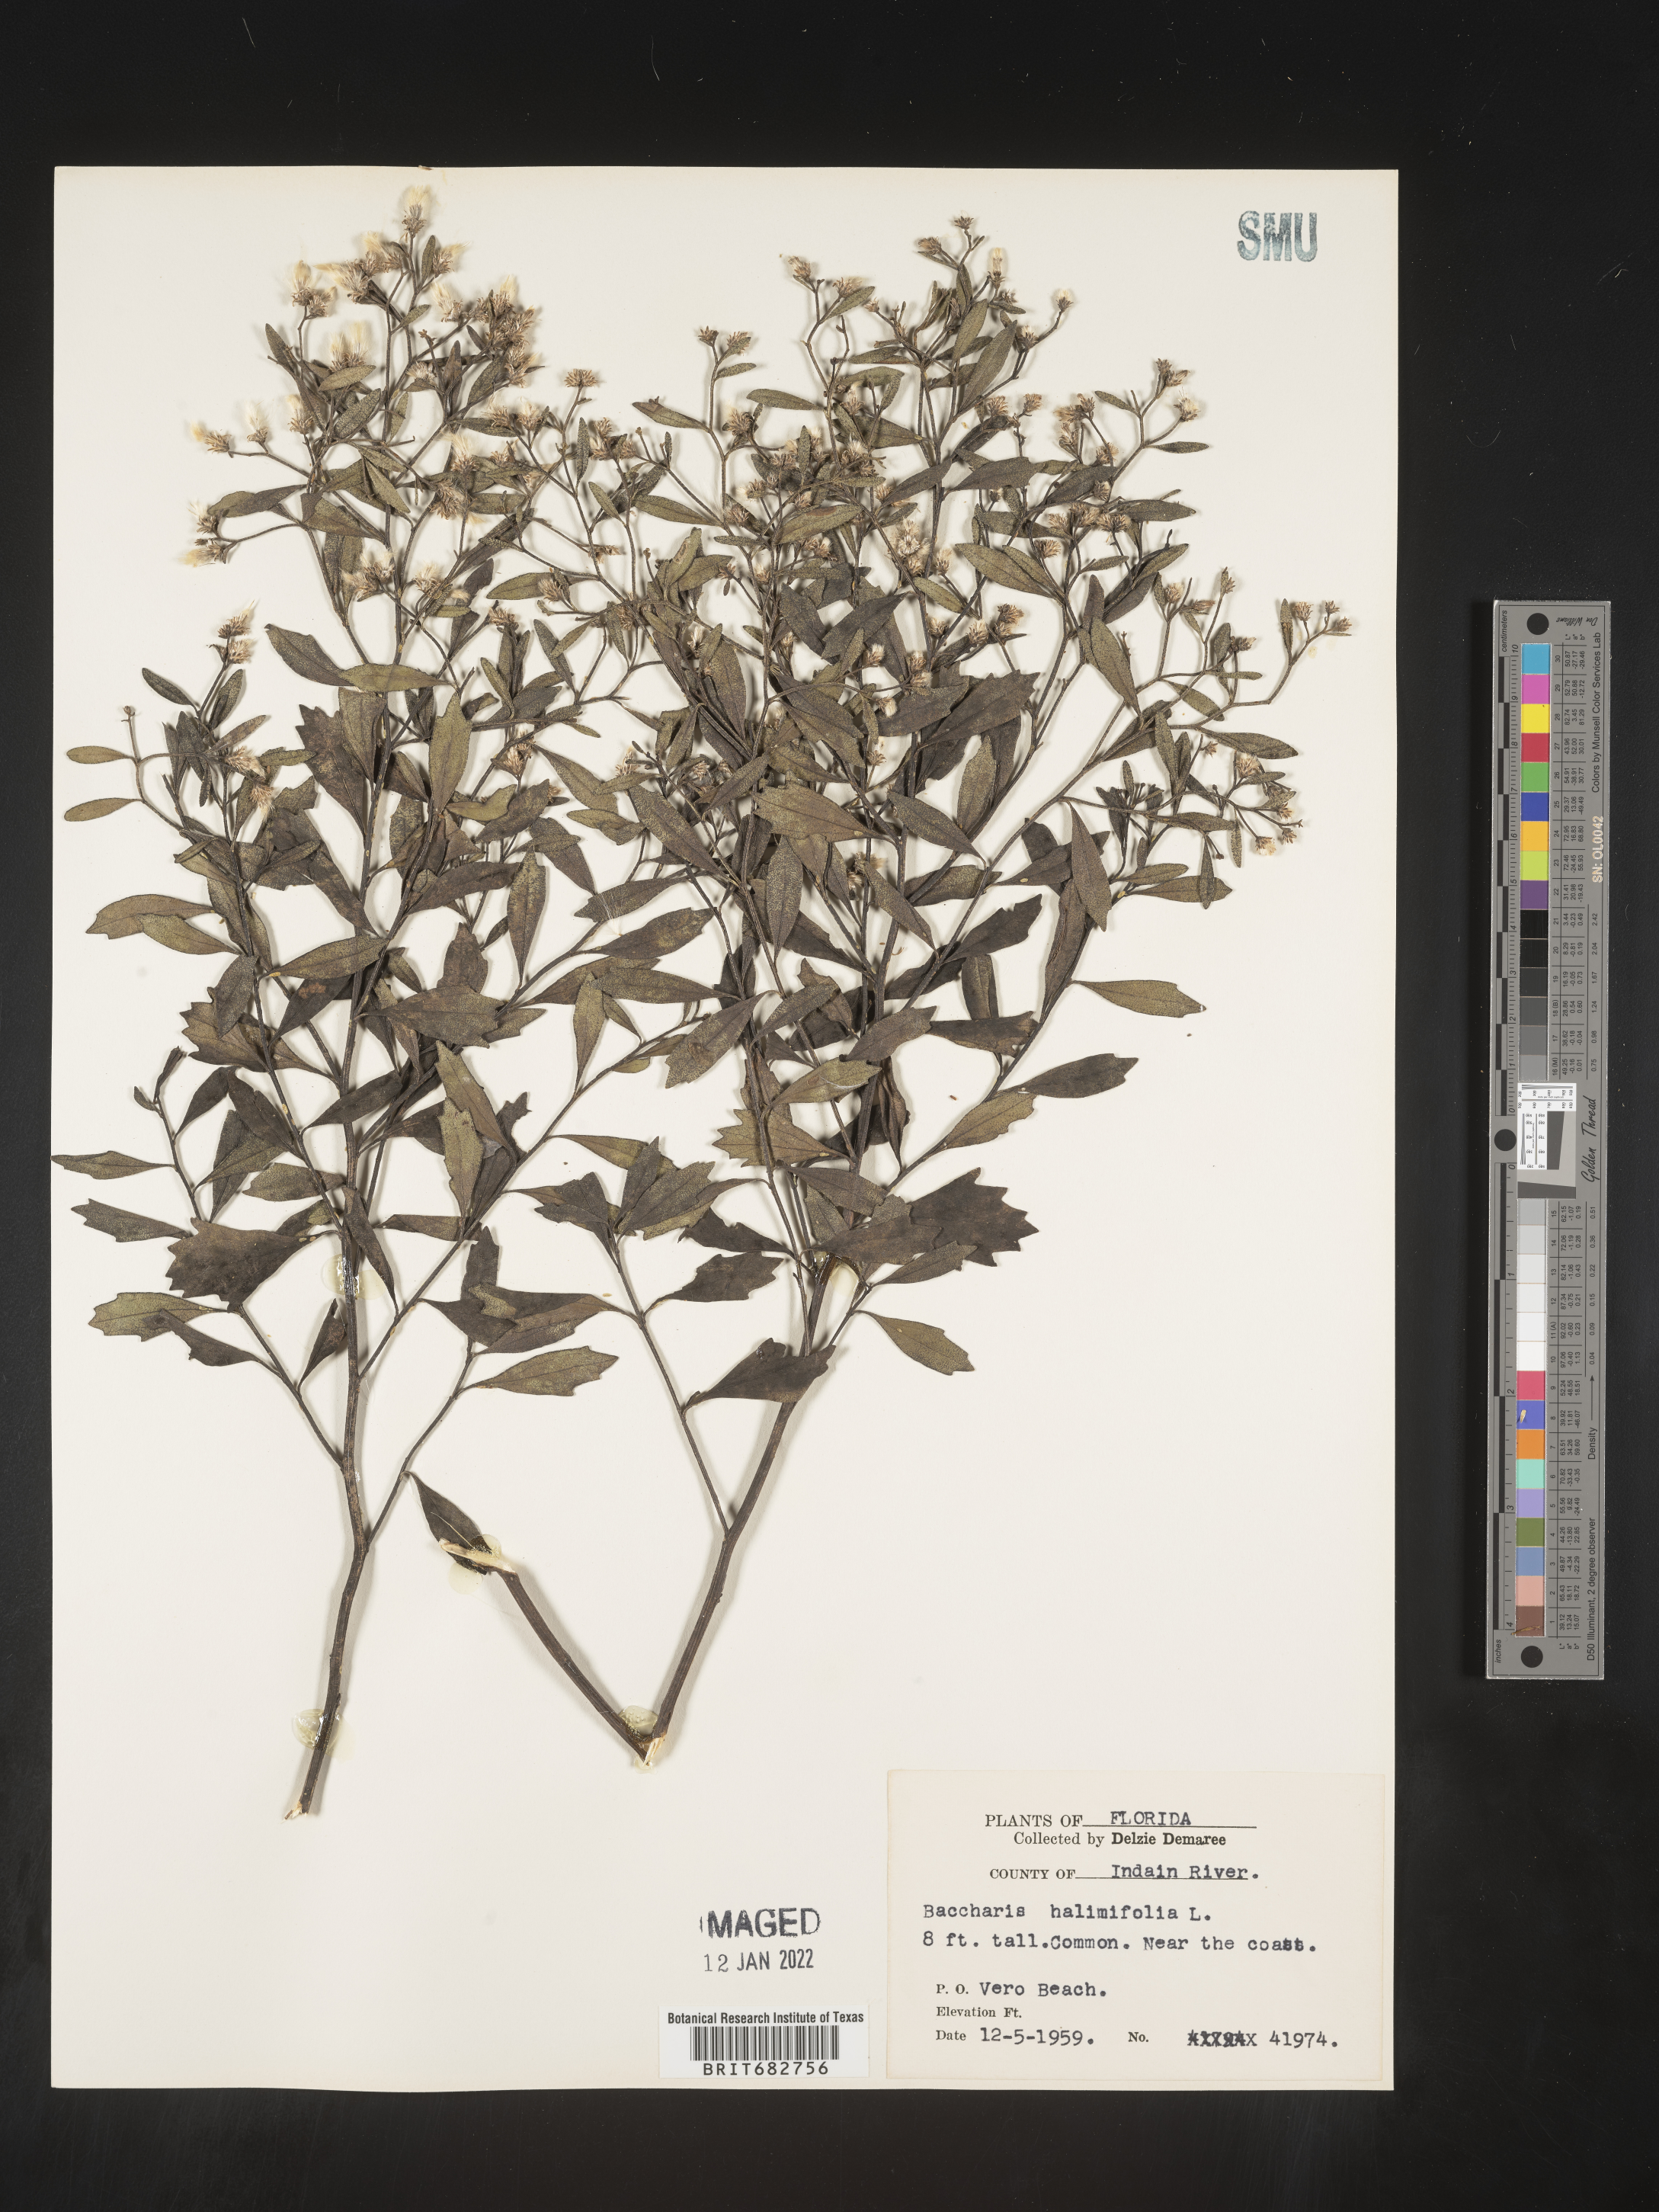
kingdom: Plantae
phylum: Tracheophyta
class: Magnoliopsida
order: Asterales
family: Asteraceae
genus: Nidorella
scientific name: Nidorella ivifolia
